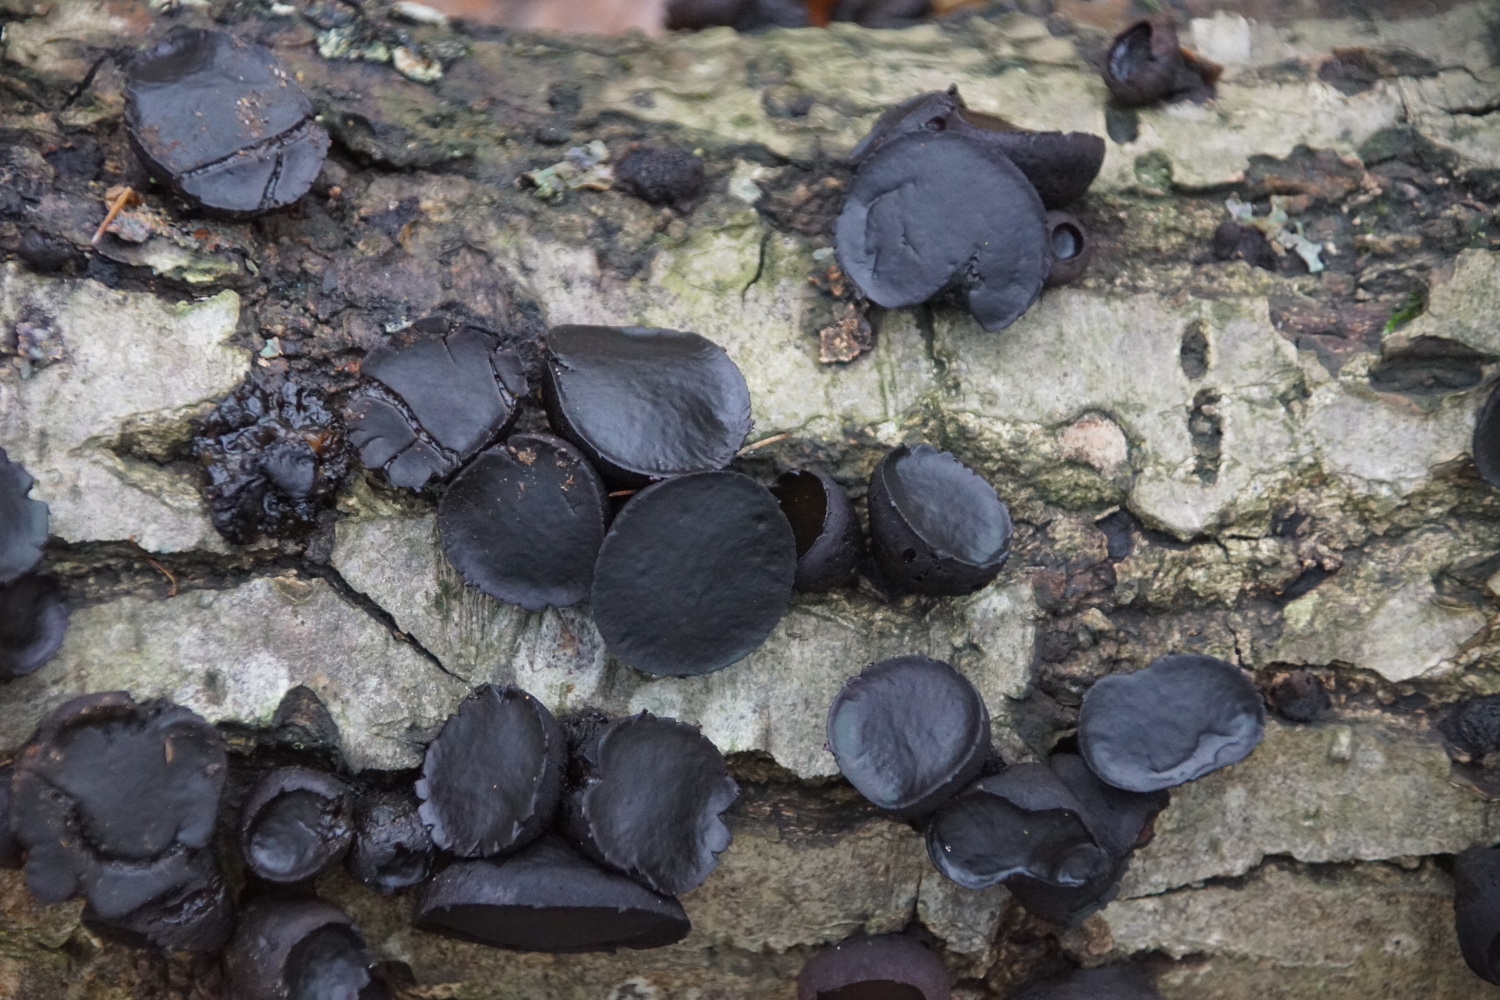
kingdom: Fungi
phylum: Ascomycota
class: Leotiomycetes
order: Phacidiales
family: Phacidiaceae
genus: Bulgaria
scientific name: Bulgaria inquinans
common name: afsmittende topsvamp
